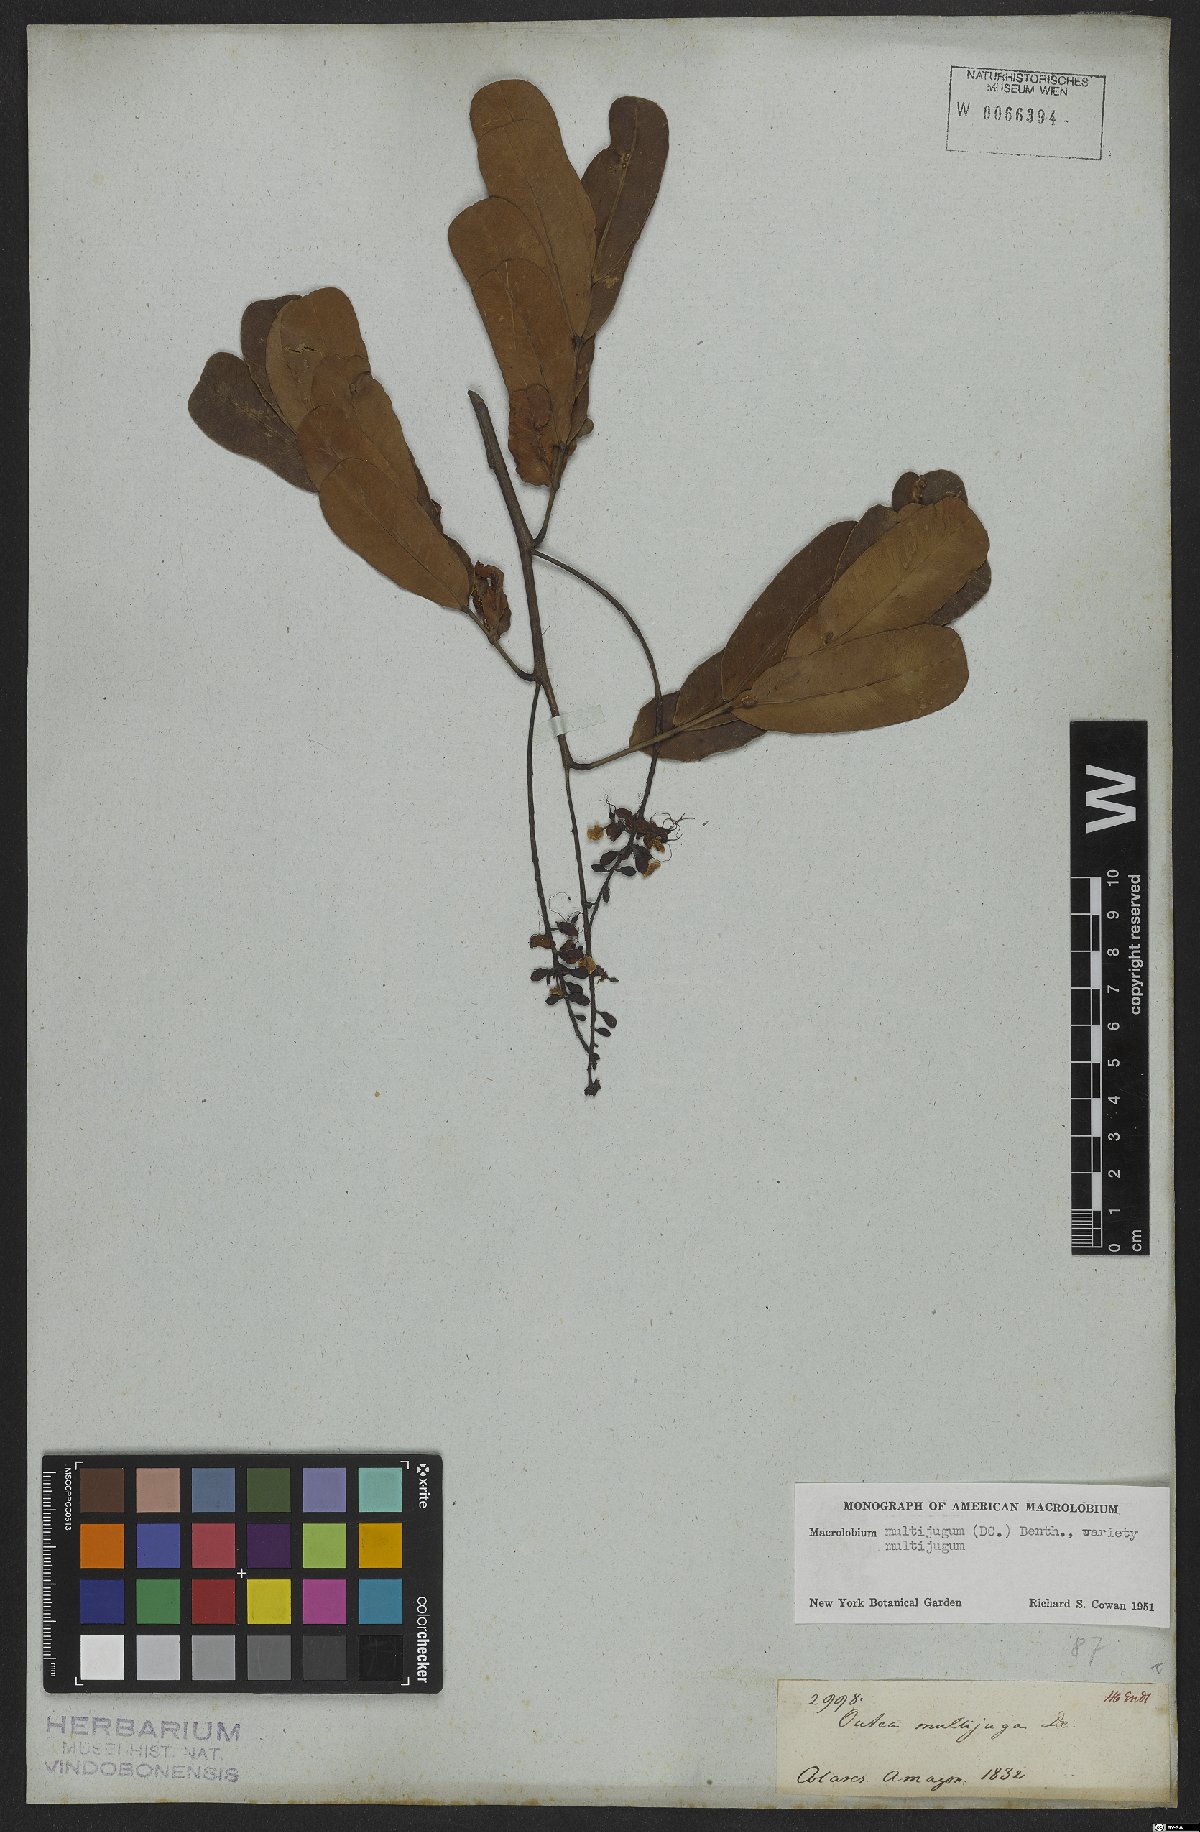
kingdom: Plantae
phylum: Tracheophyta
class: Magnoliopsida
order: Fabales
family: Fabaceae
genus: Macrolobium
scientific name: Macrolobium multijugum
